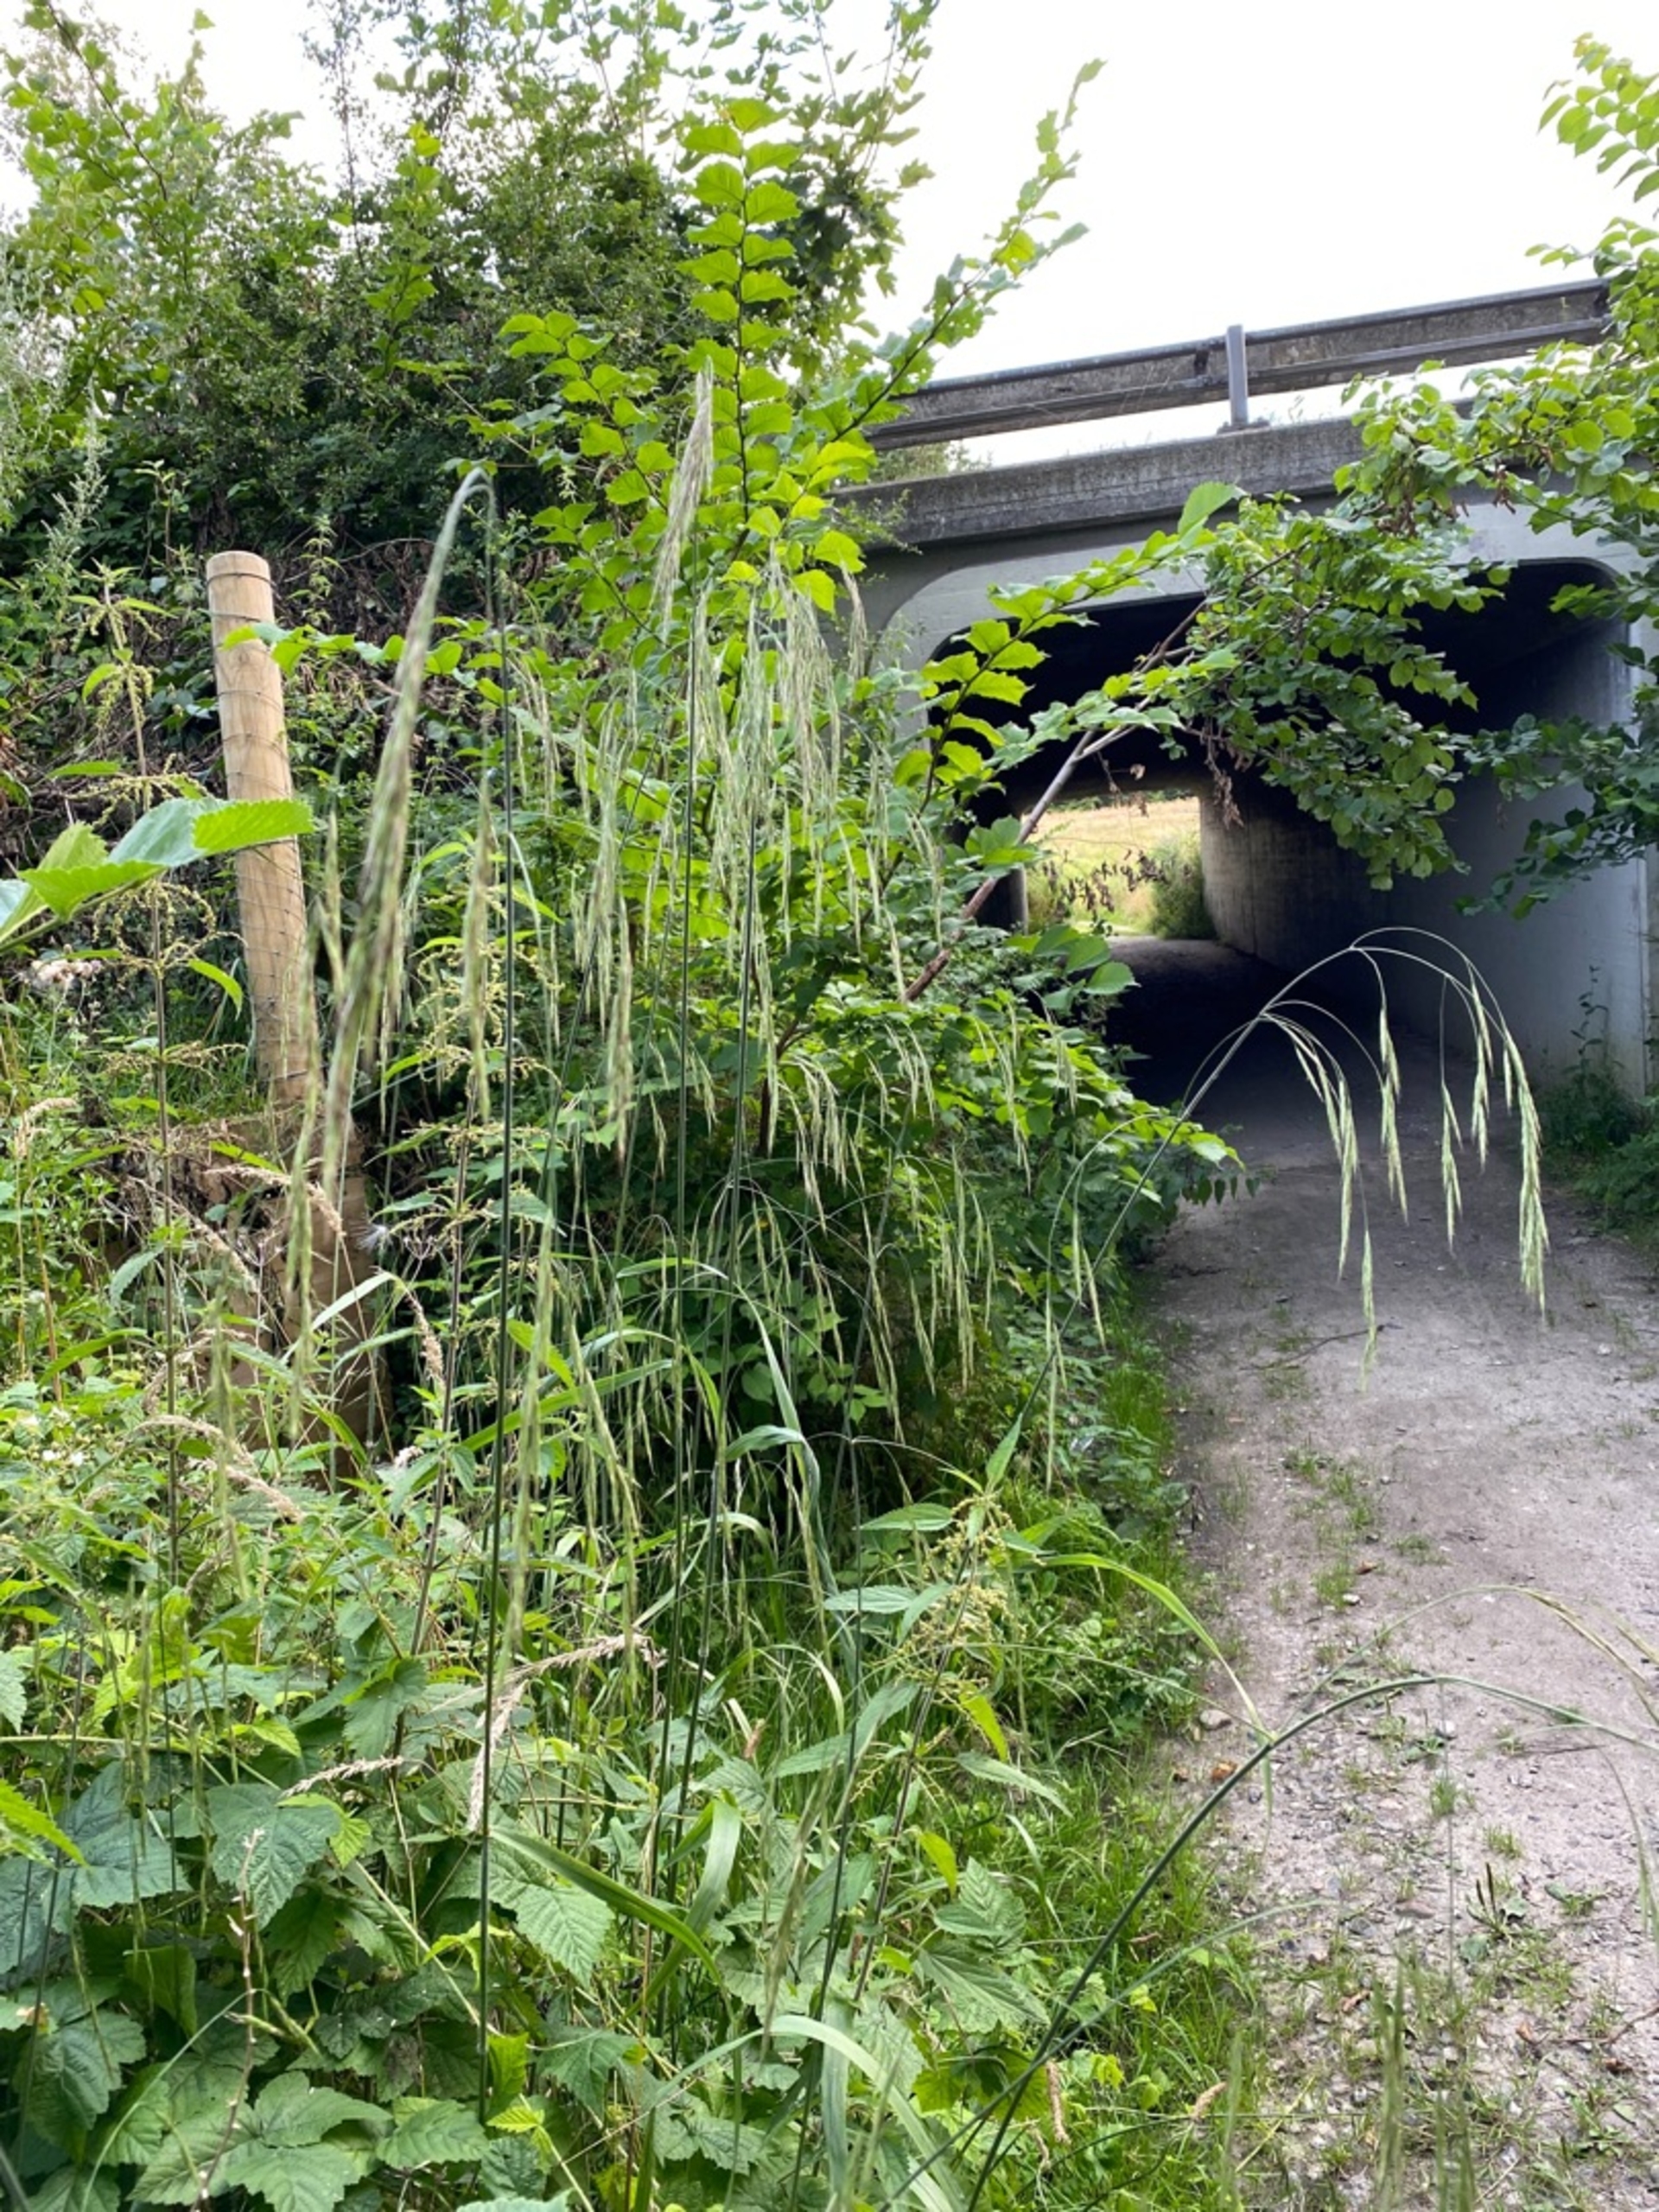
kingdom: Plantae
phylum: Tracheophyta
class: Liliopsida
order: Poales
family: Poaceae
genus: Bromus
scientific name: Bromus ramosus
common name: Sildig skov-hejre
